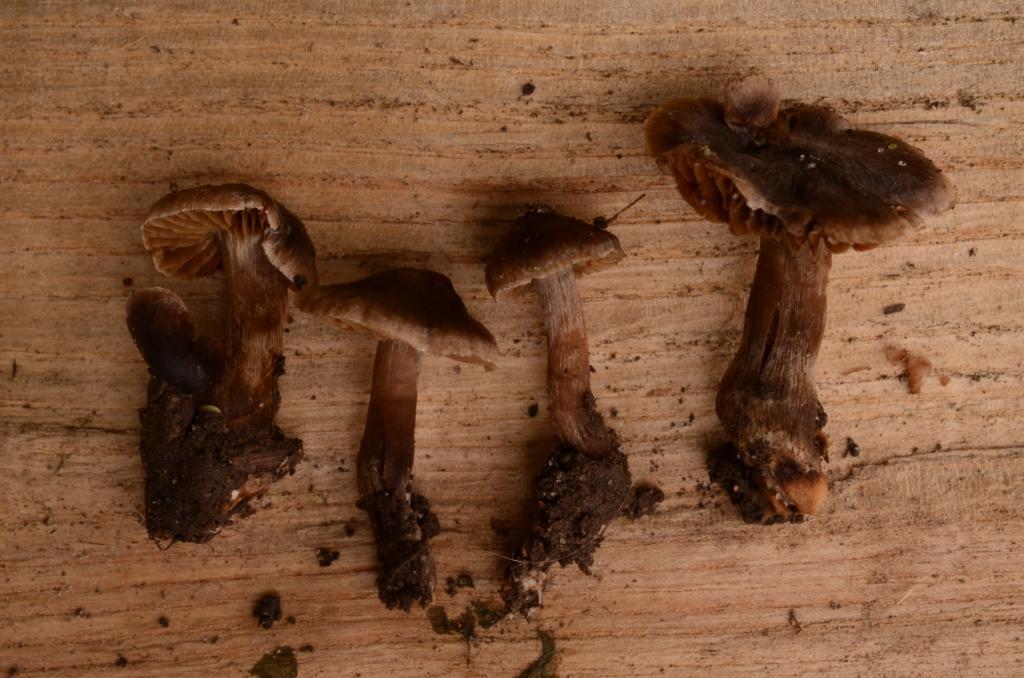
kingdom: Fungi
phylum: Basidiomycota
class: Agaricomycetes
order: Agaricales
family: Cortinariaceae
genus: Cortinarius
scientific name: Cortinarius
